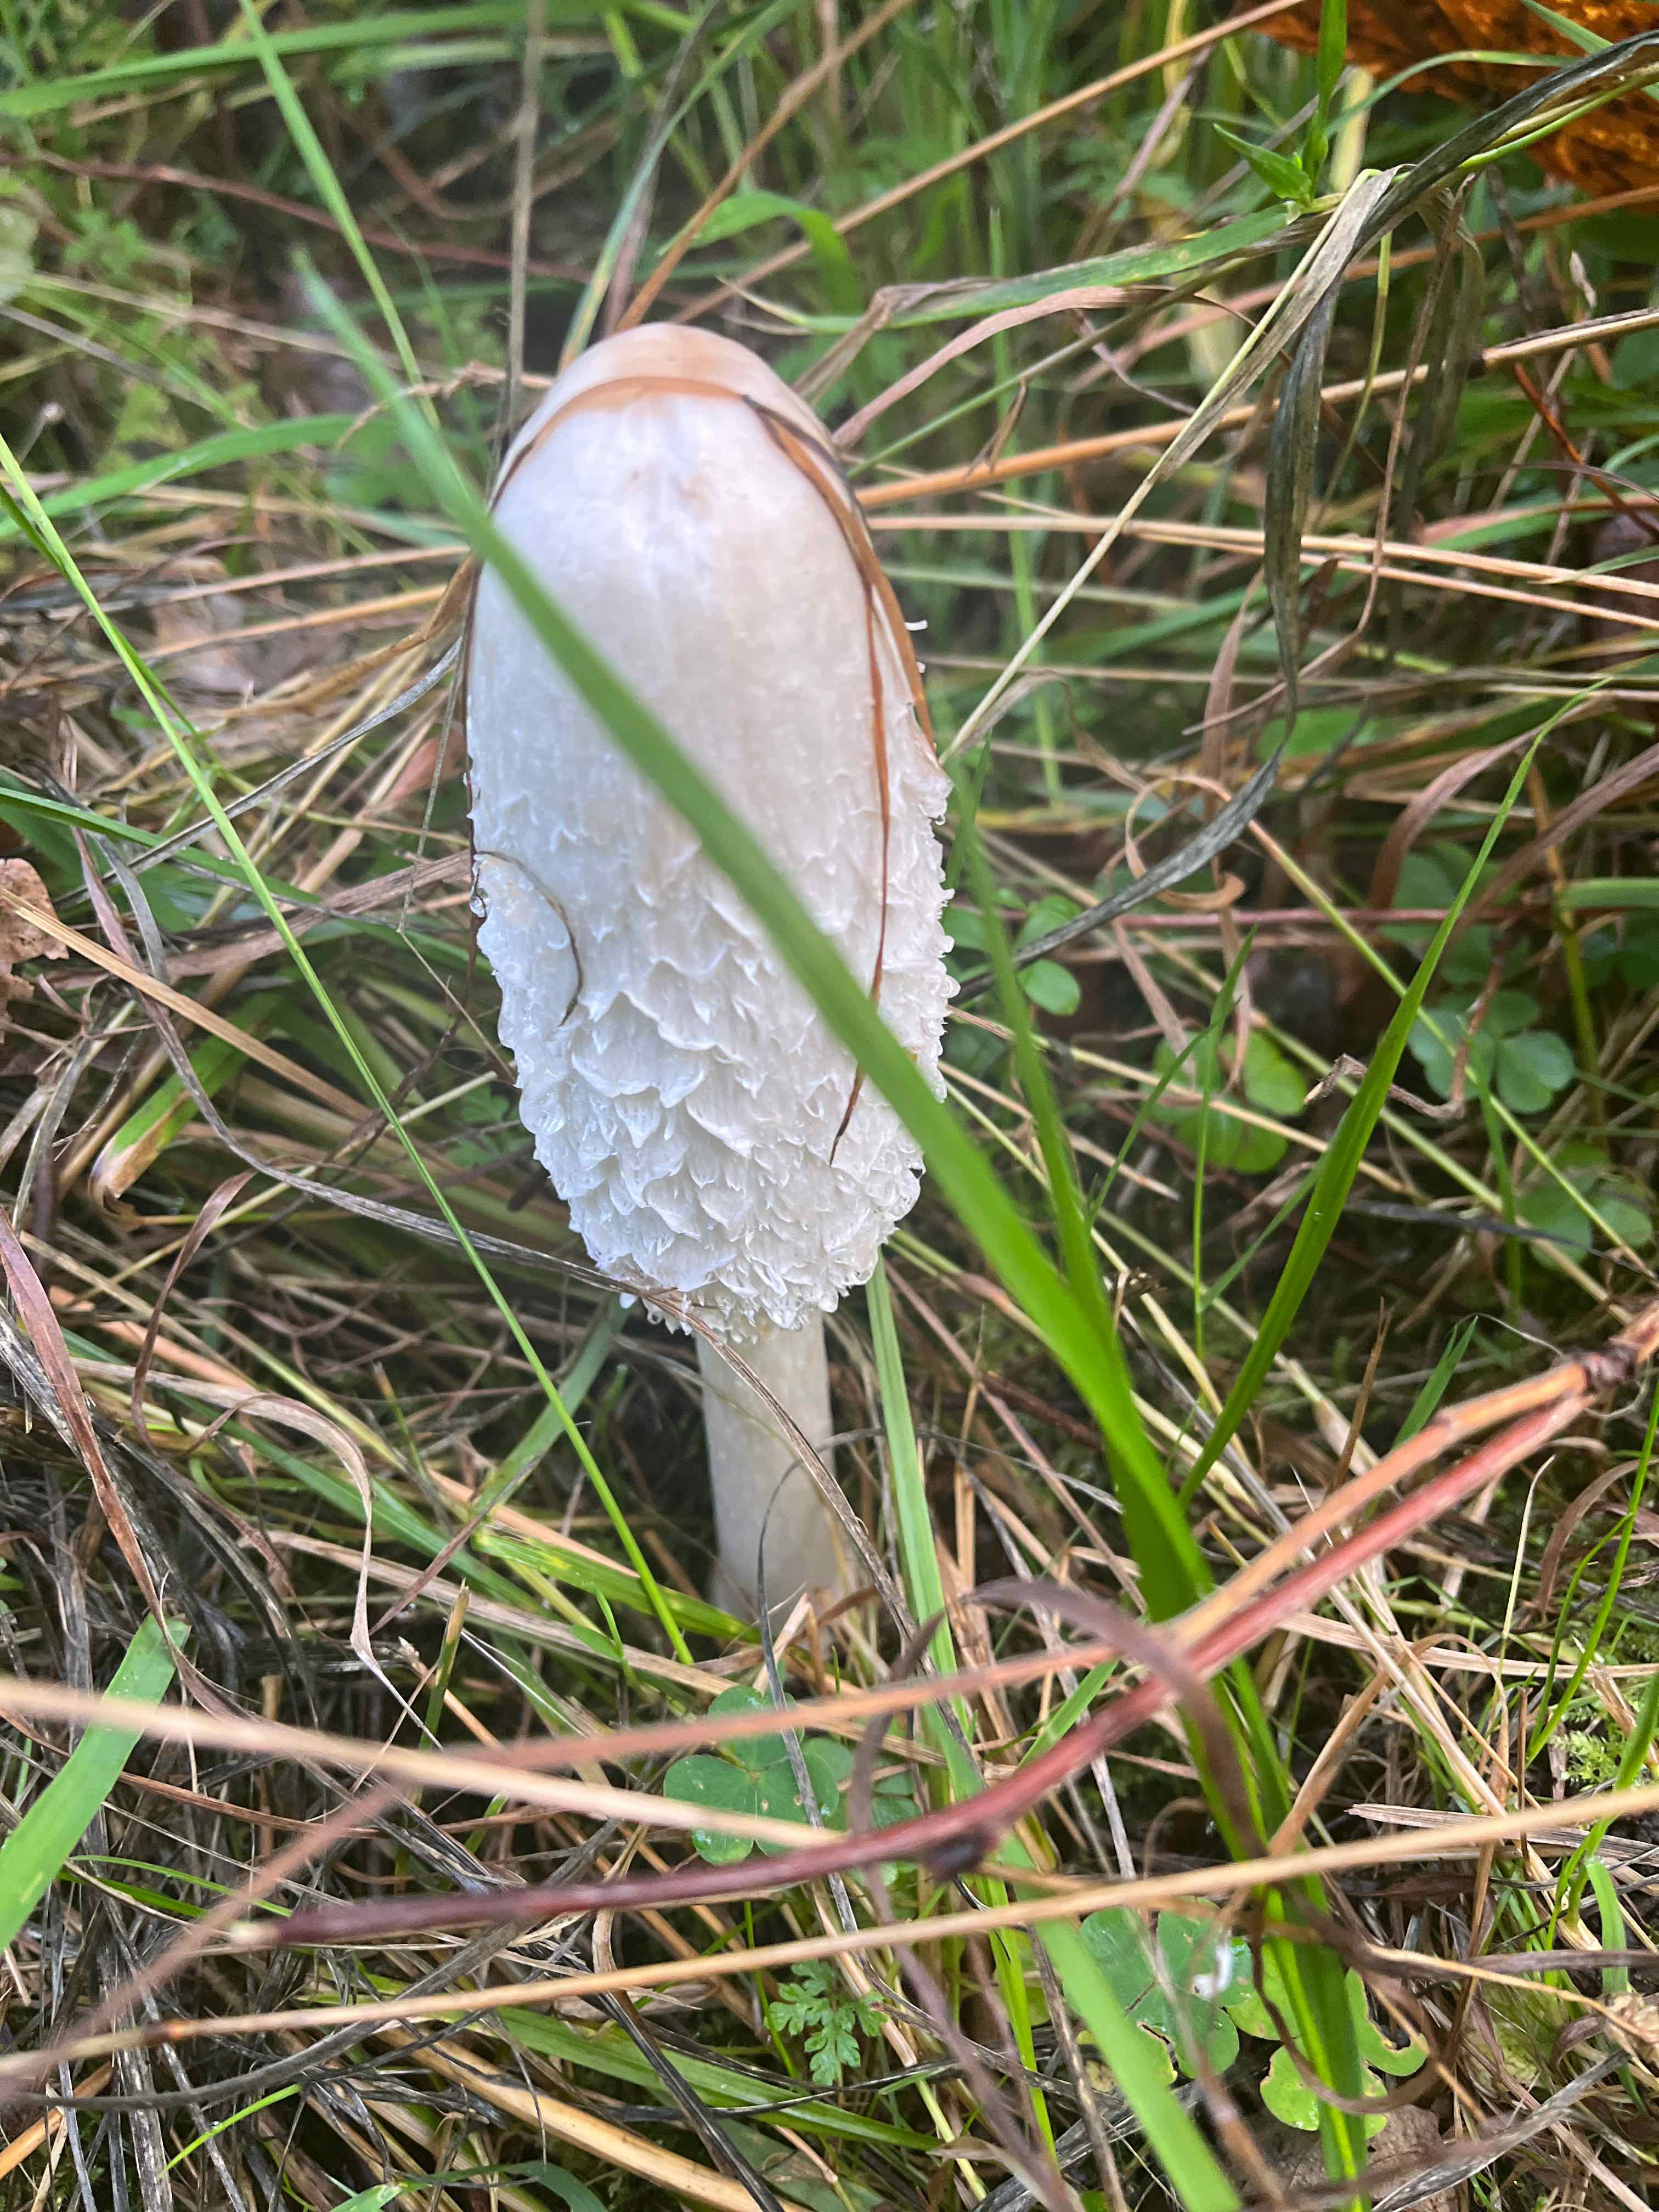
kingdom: Fungi
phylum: Basidiomycota
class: Agaricomycetes
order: Agaricales
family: Agaricaceae
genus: Coprinus
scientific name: Coprinus comatus
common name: stor parykhat
